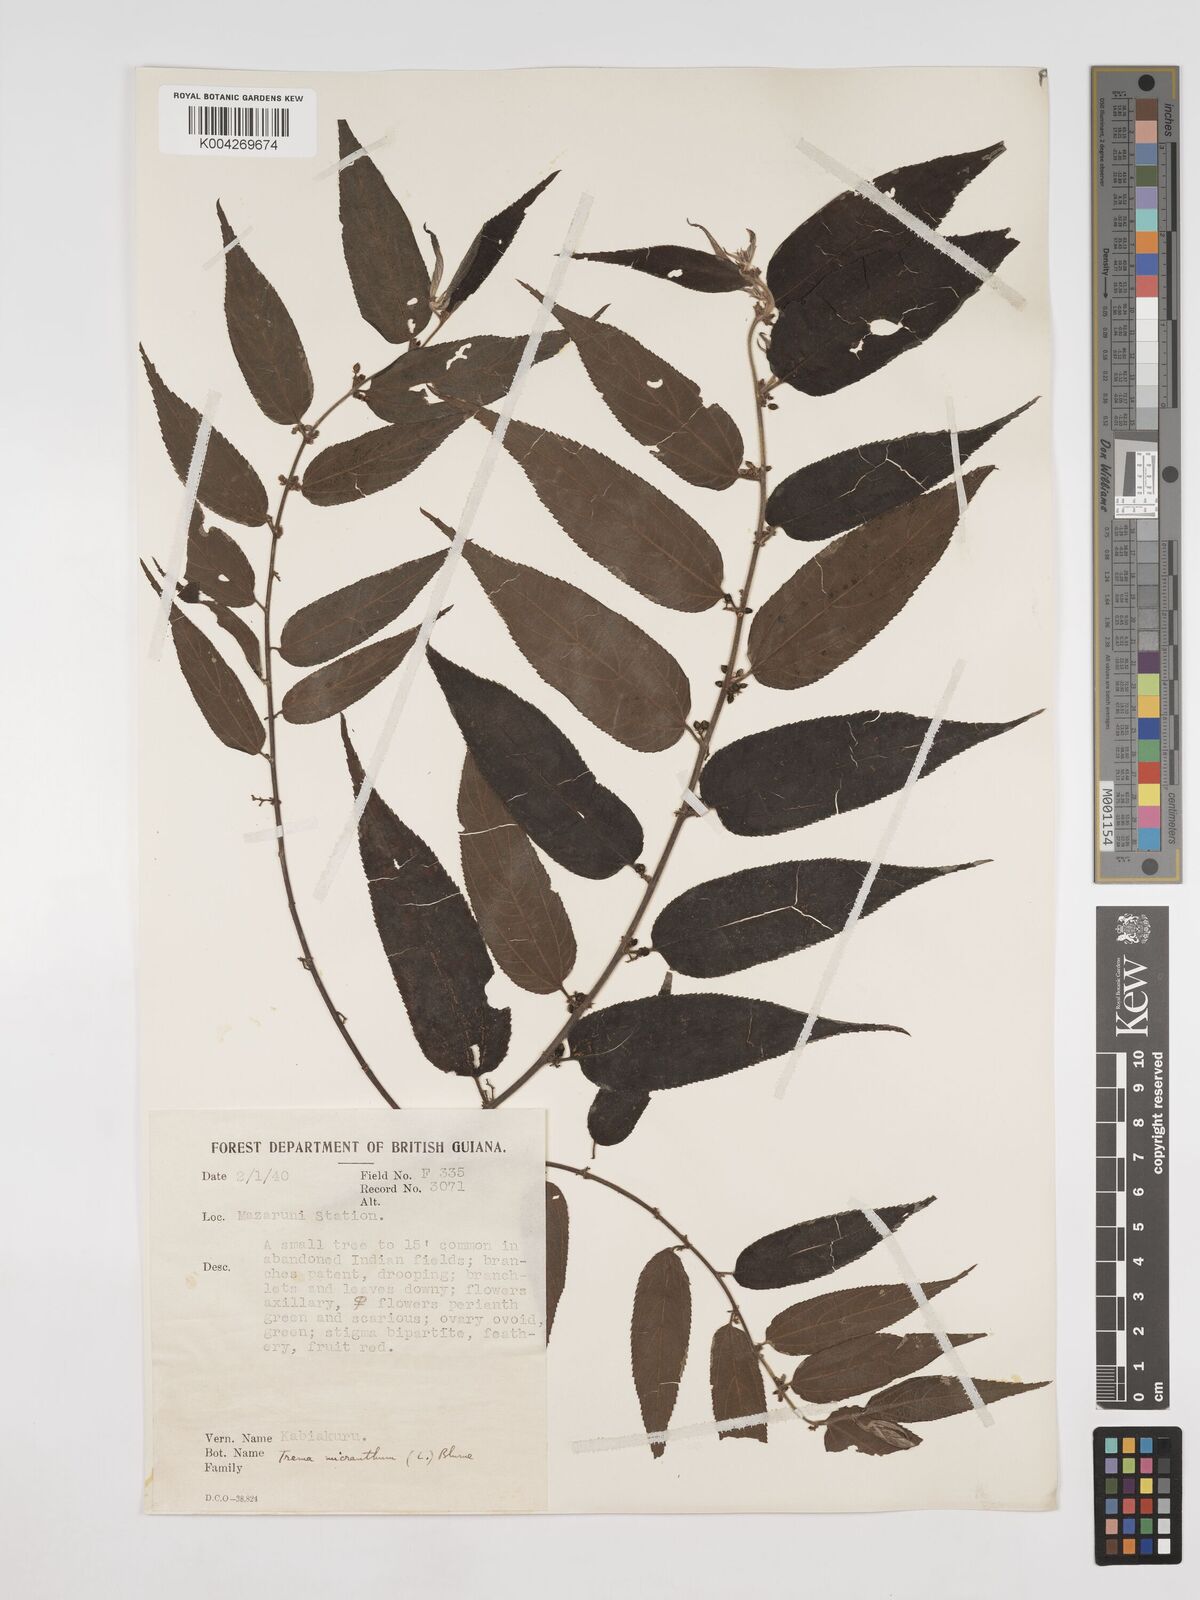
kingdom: Plantae
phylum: Tracheophyta
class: Magnoliopsida
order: Rosales
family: Cannabaceae
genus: Trema
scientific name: Trema micranthum
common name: Jamaican nettletree
